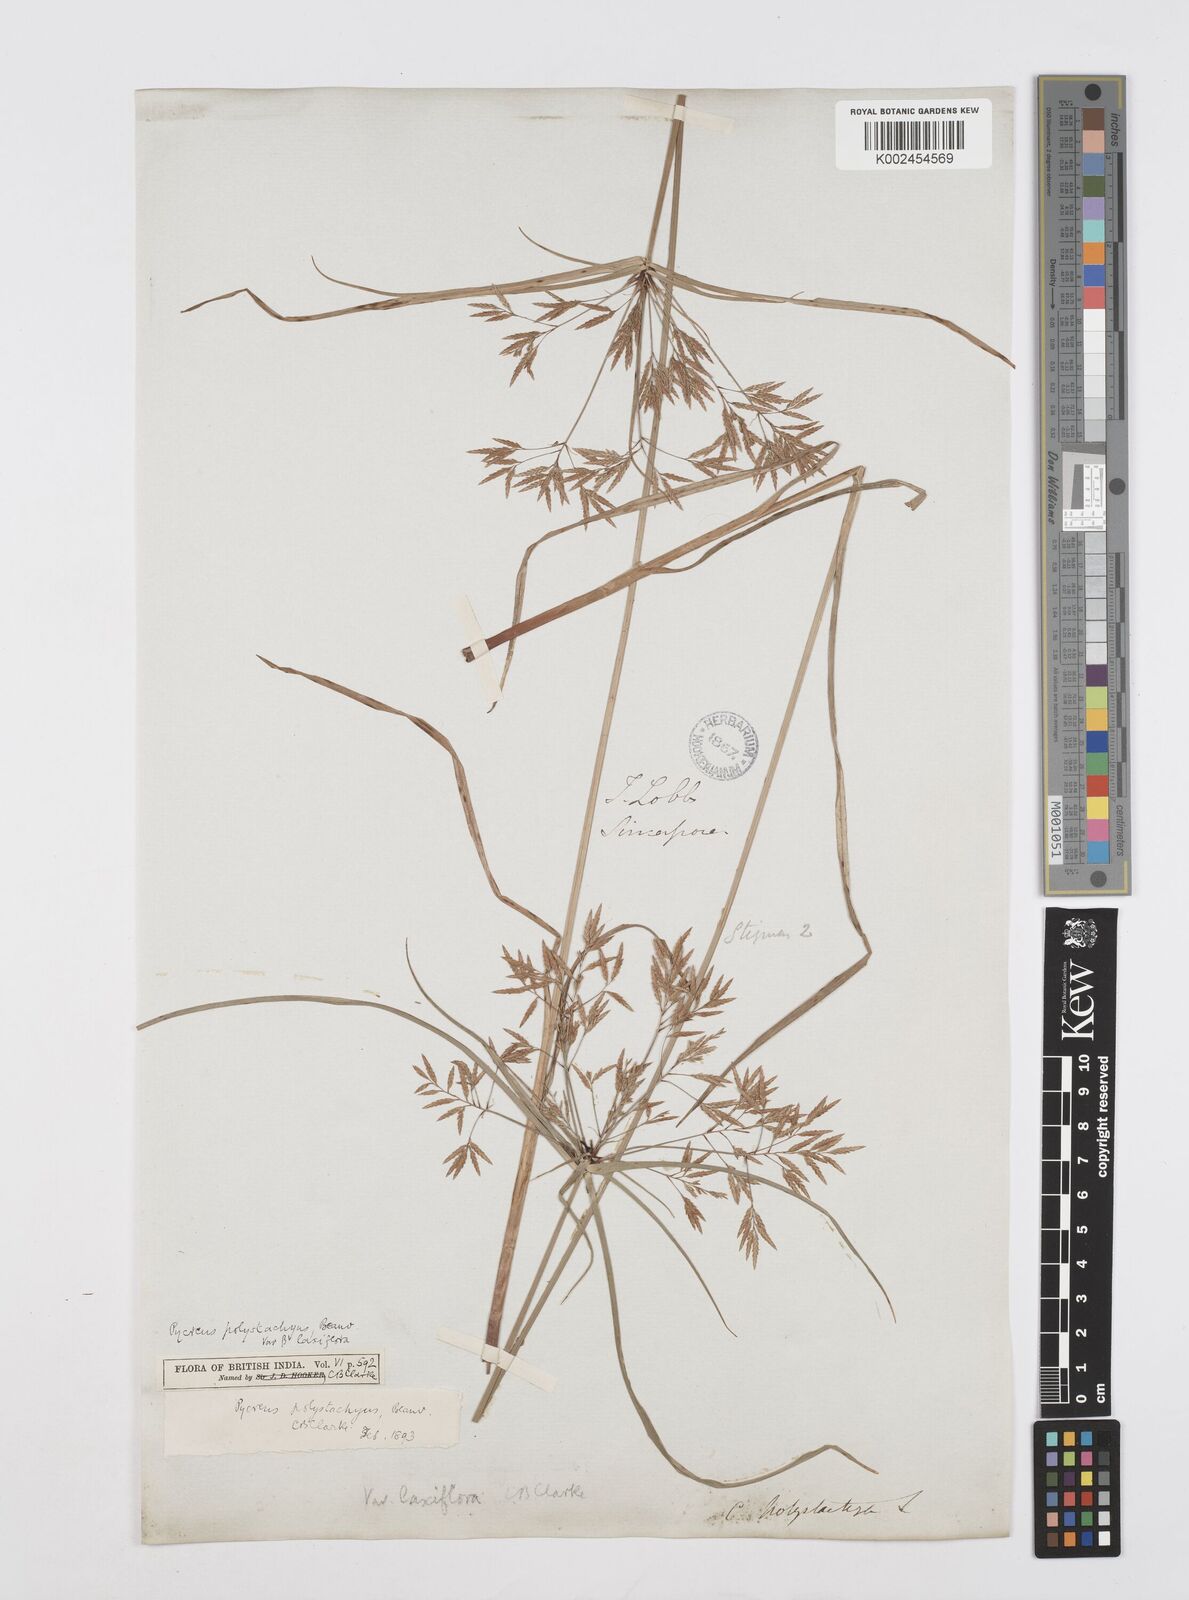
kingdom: Plantae
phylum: Tracheophyta
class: Liliopsida
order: Poales
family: Cyperaceae
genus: Cyperus
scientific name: Cyperus polystachyos
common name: Bunchy flat sedge
